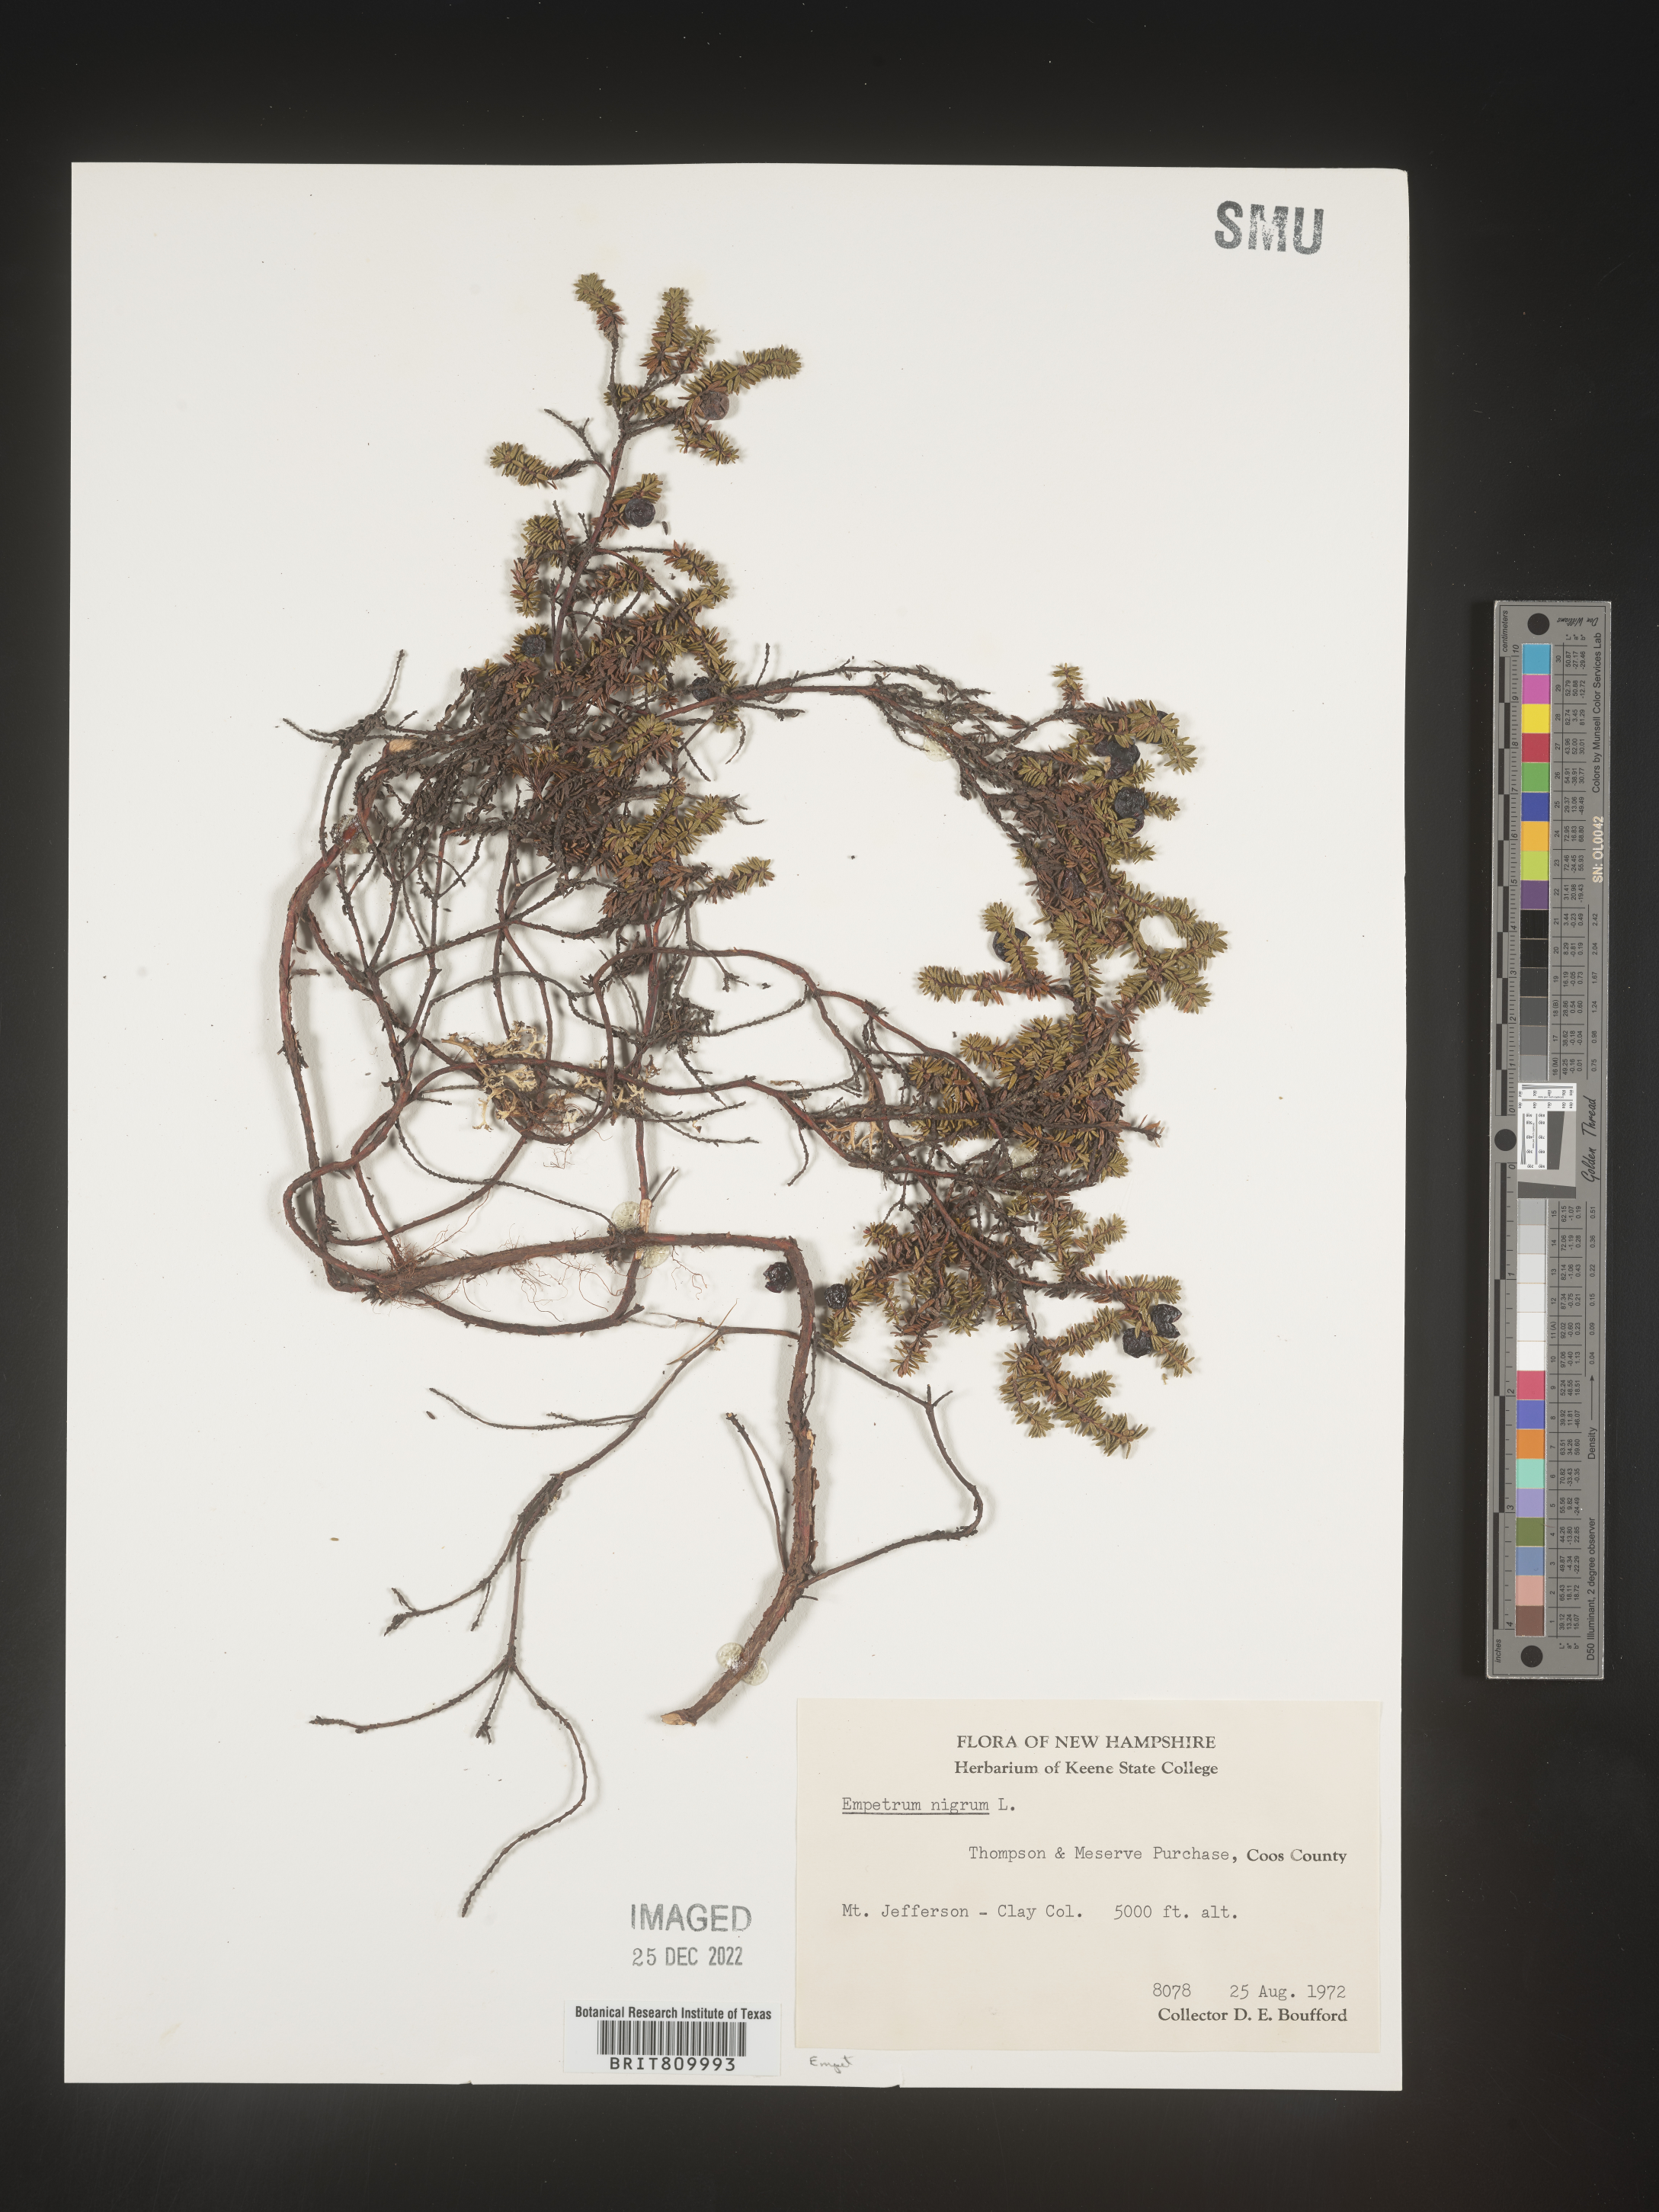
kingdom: Plantae
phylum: Tracheophyta
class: Magnoliopsida
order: Ericales
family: Ericaceae
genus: Empetrum
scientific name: Empetrum
